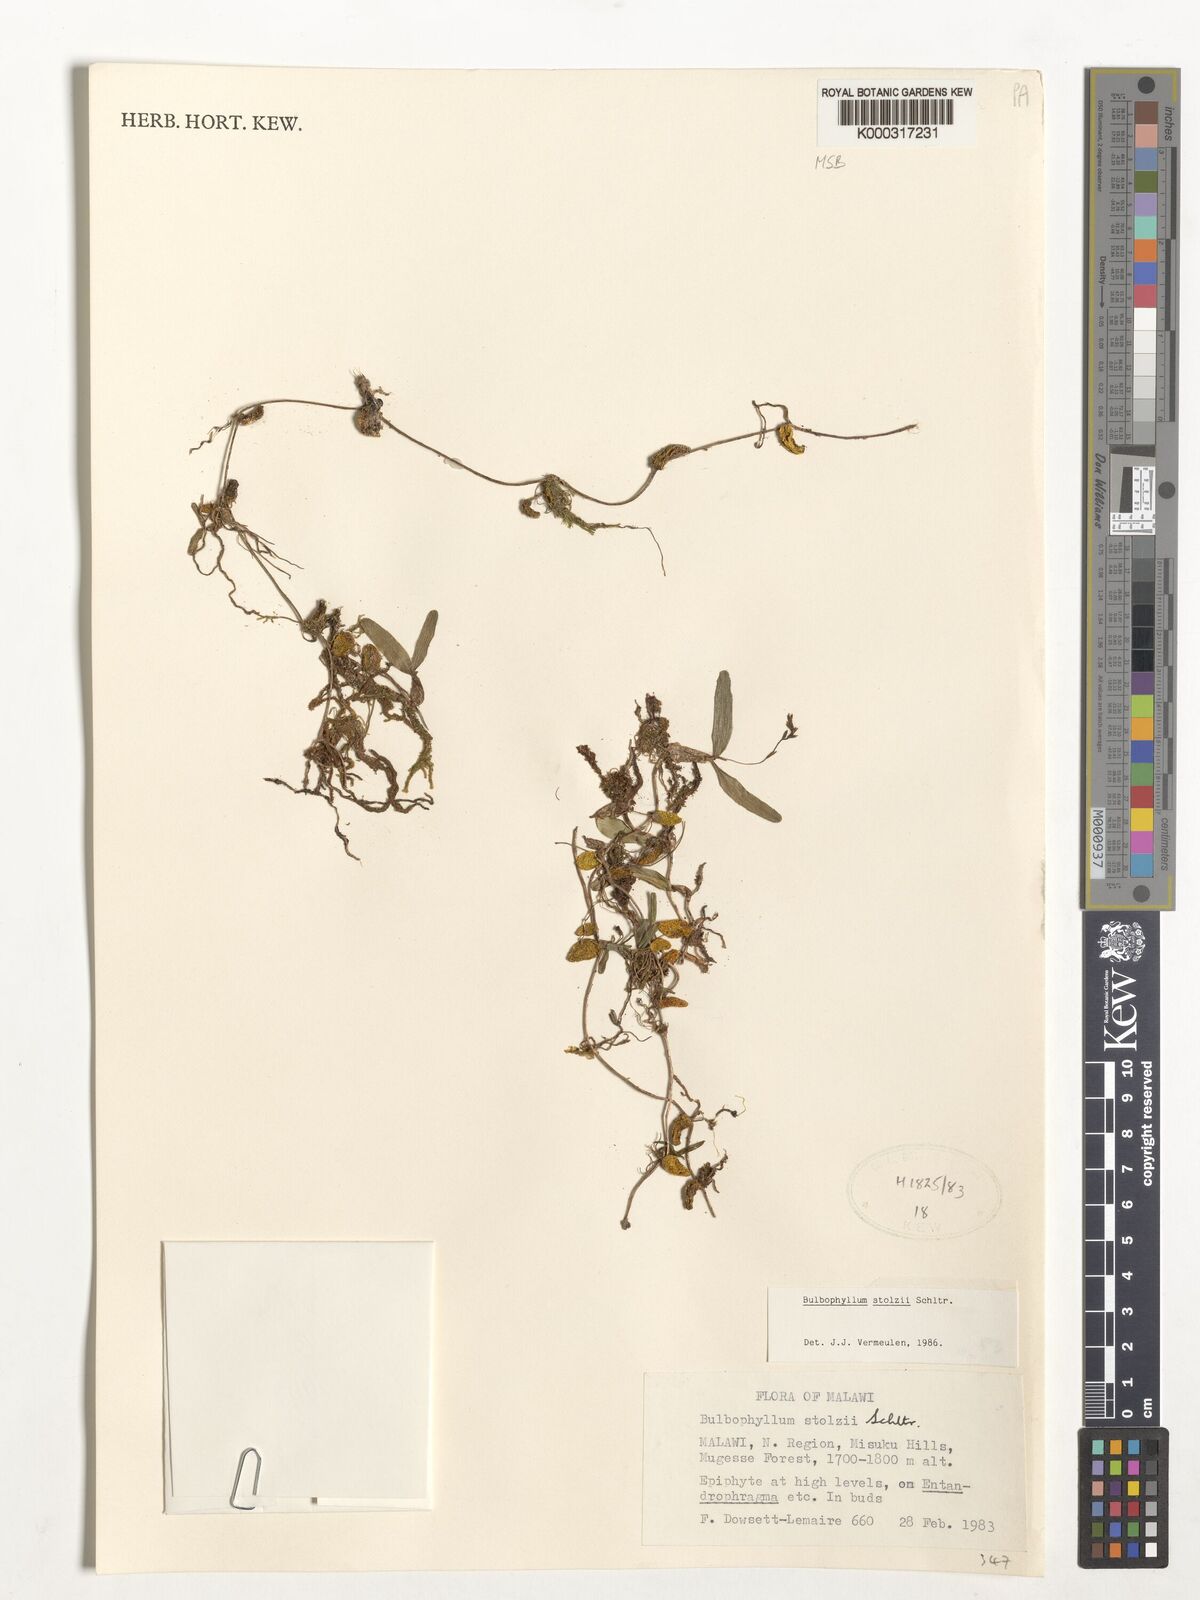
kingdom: Plantae
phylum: Tracheophyta
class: Liliopsida
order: Asparagales
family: Orchidaceae
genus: Bulbophyllum
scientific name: Bulbophyllum stolzii
